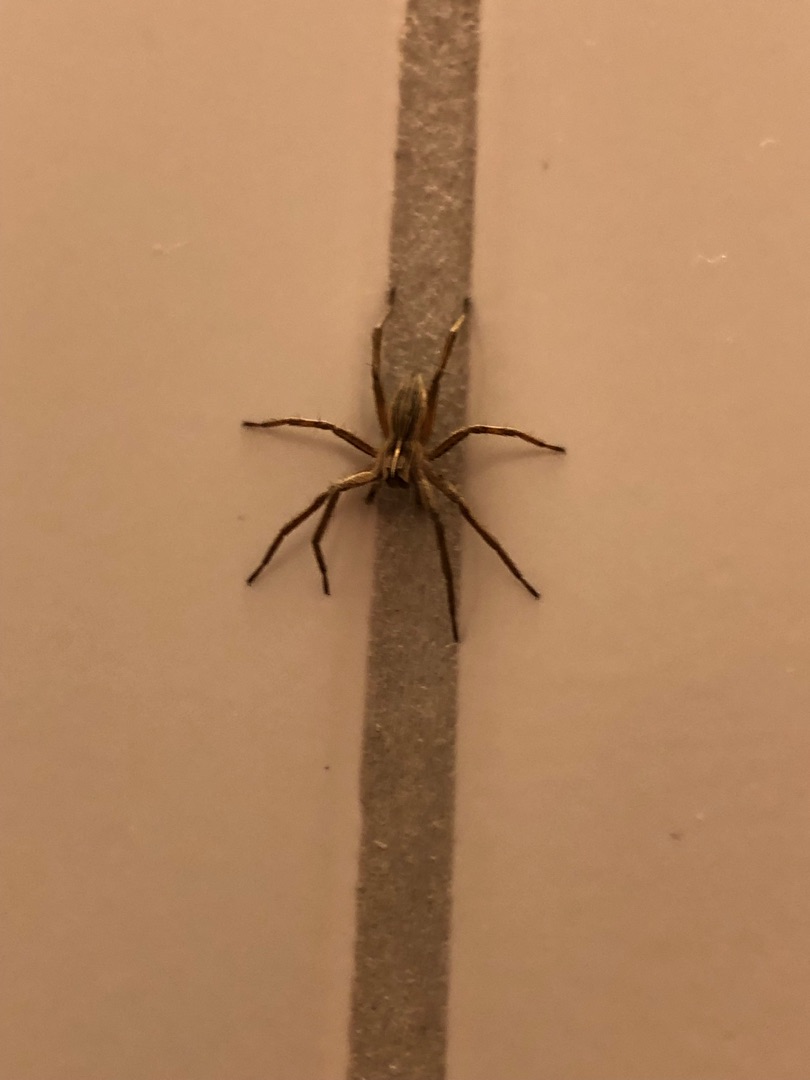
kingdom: Animalia
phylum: Arthropoda
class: Arachnida
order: Araneae
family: Pisauridae
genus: Pisaura
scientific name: Pisaura mirabilis
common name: Almindelig rovedderkop
